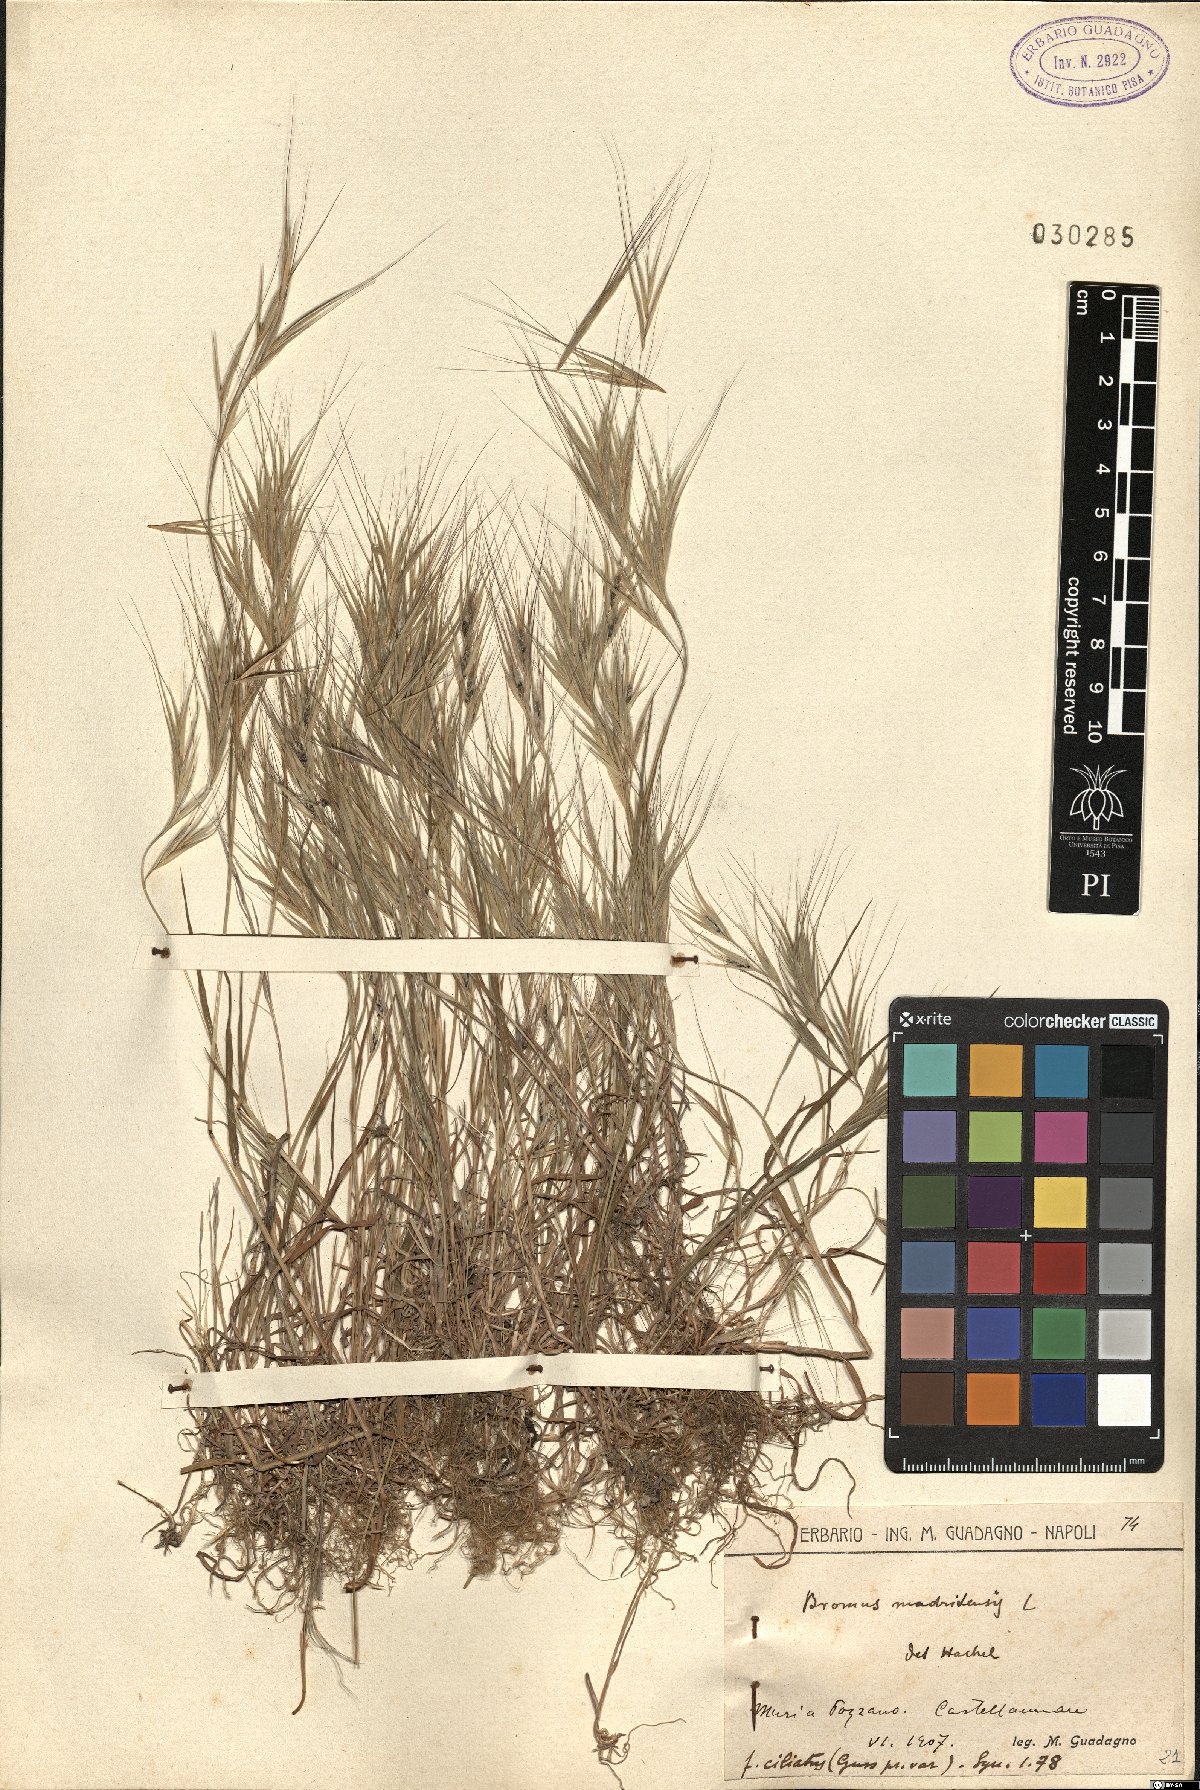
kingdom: Plantae
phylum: Tracheophyta
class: Liliopsida
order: Poales
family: Poaceae
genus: Bromus
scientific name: Bromus madritensis
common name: Compact brome
